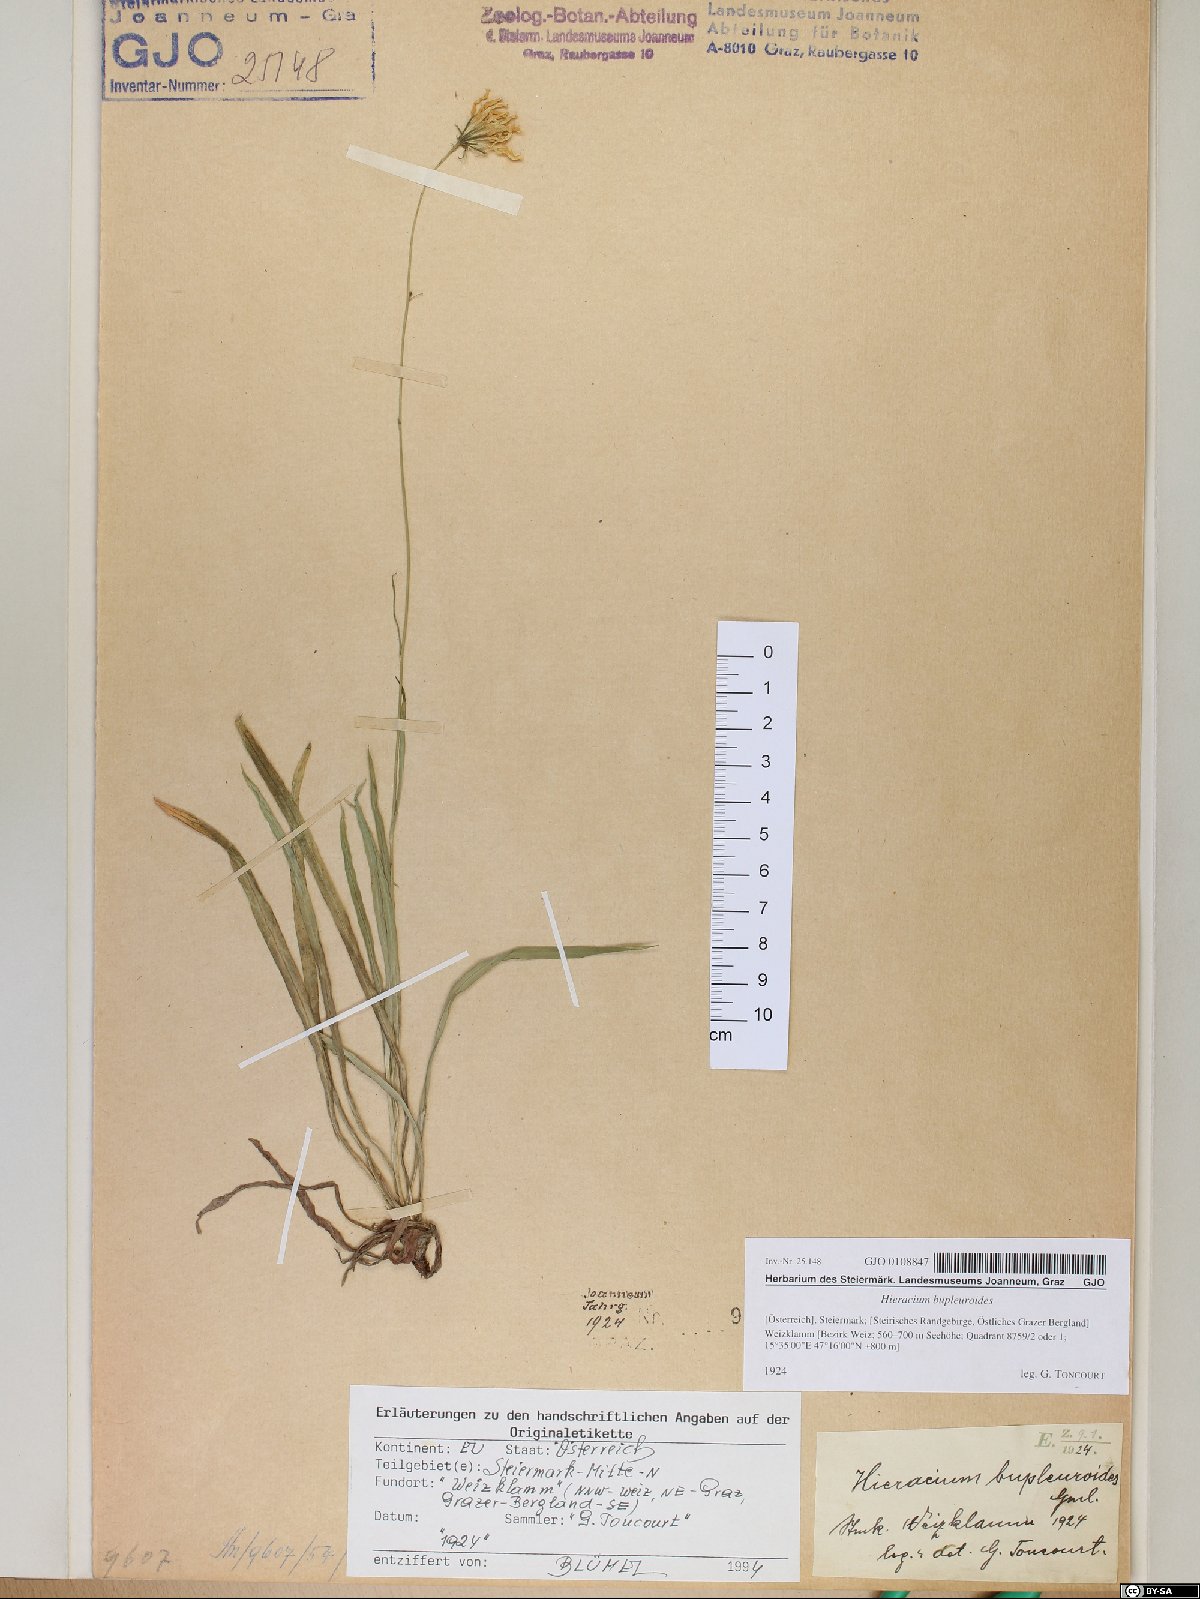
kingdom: Plantae
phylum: Tracheophyta
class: Magnoliopsida
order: Asterales
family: Asteraceae
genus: Hieracium
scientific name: Hieracium bupleuroides
